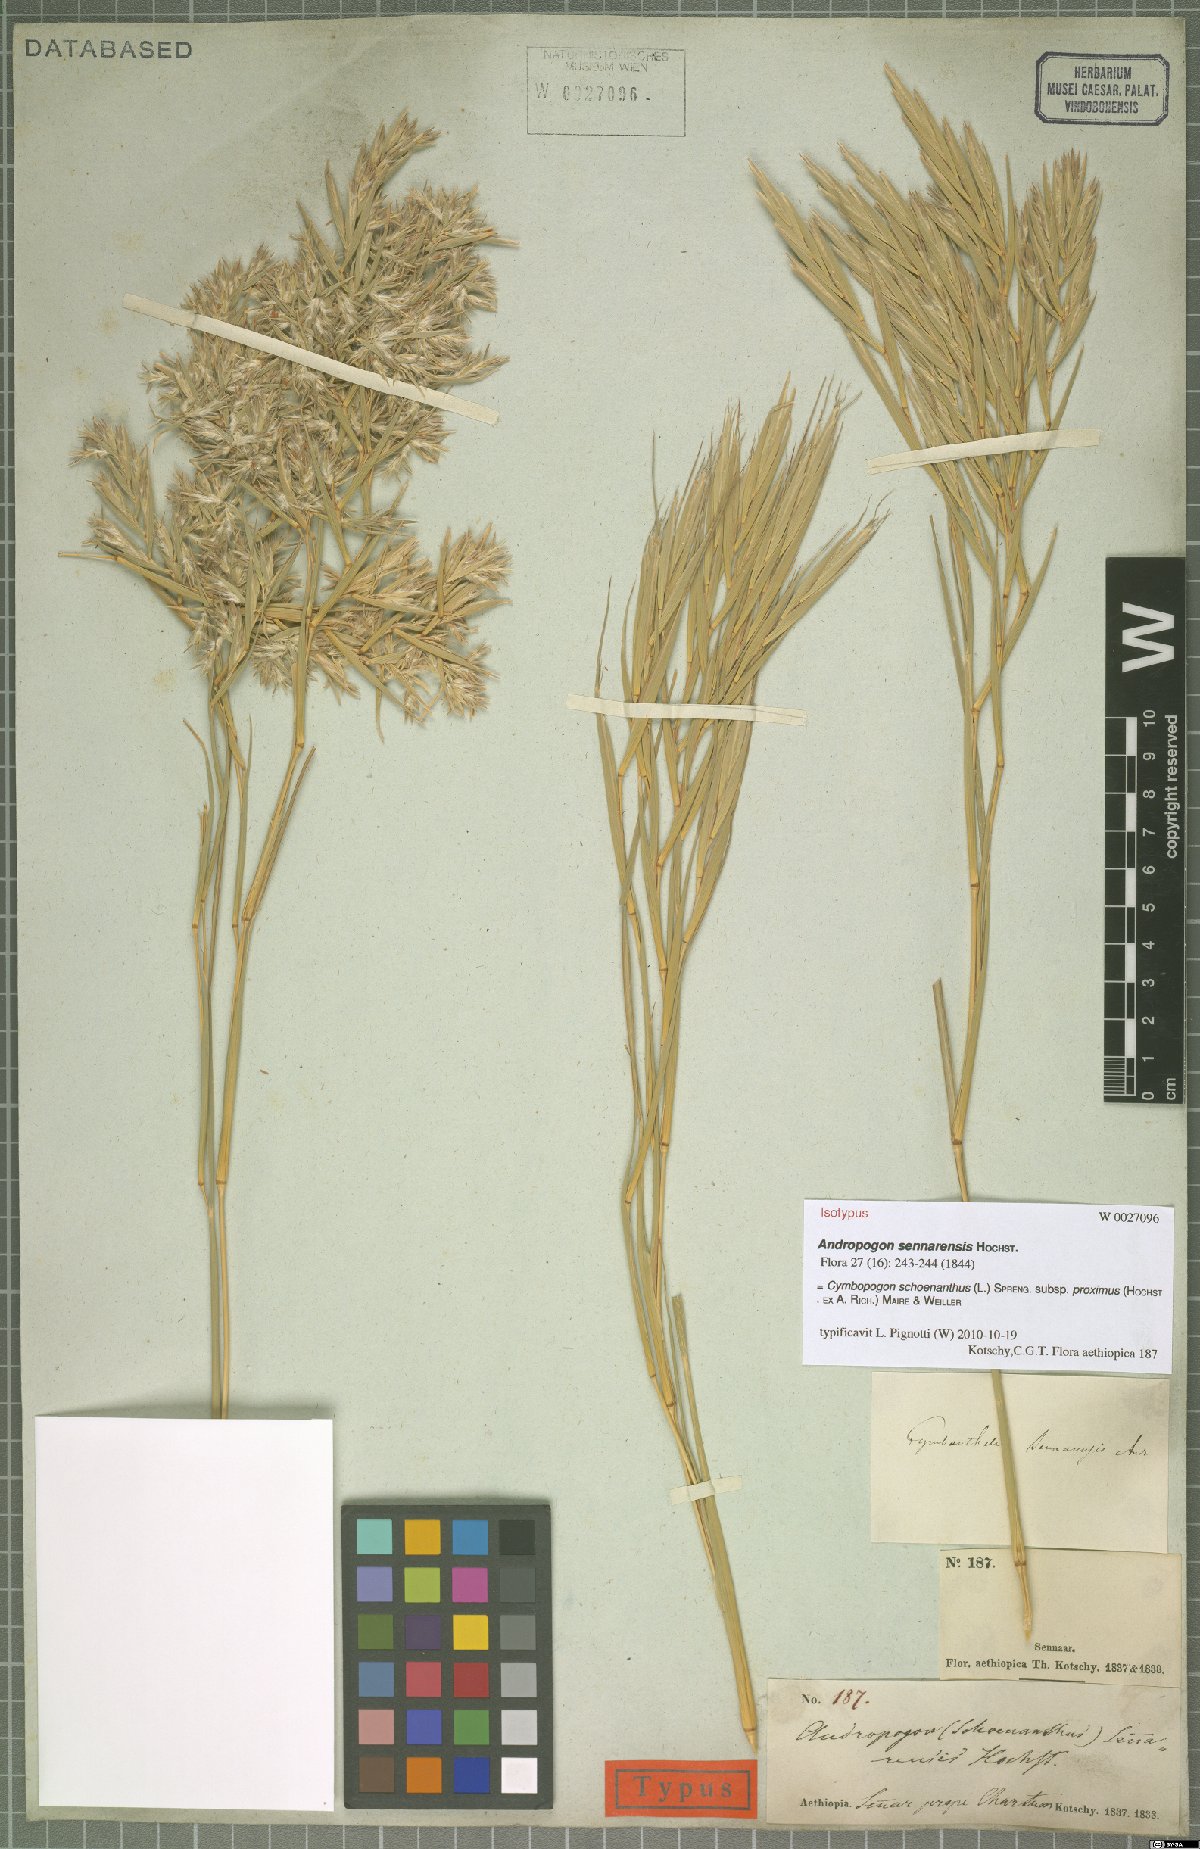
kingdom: Plantae
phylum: Tracheophyta
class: Liliopsida
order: Poales
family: Poaceae
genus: Cymbopogon
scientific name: Cymbopogon schoenanthus
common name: Geranium grass
